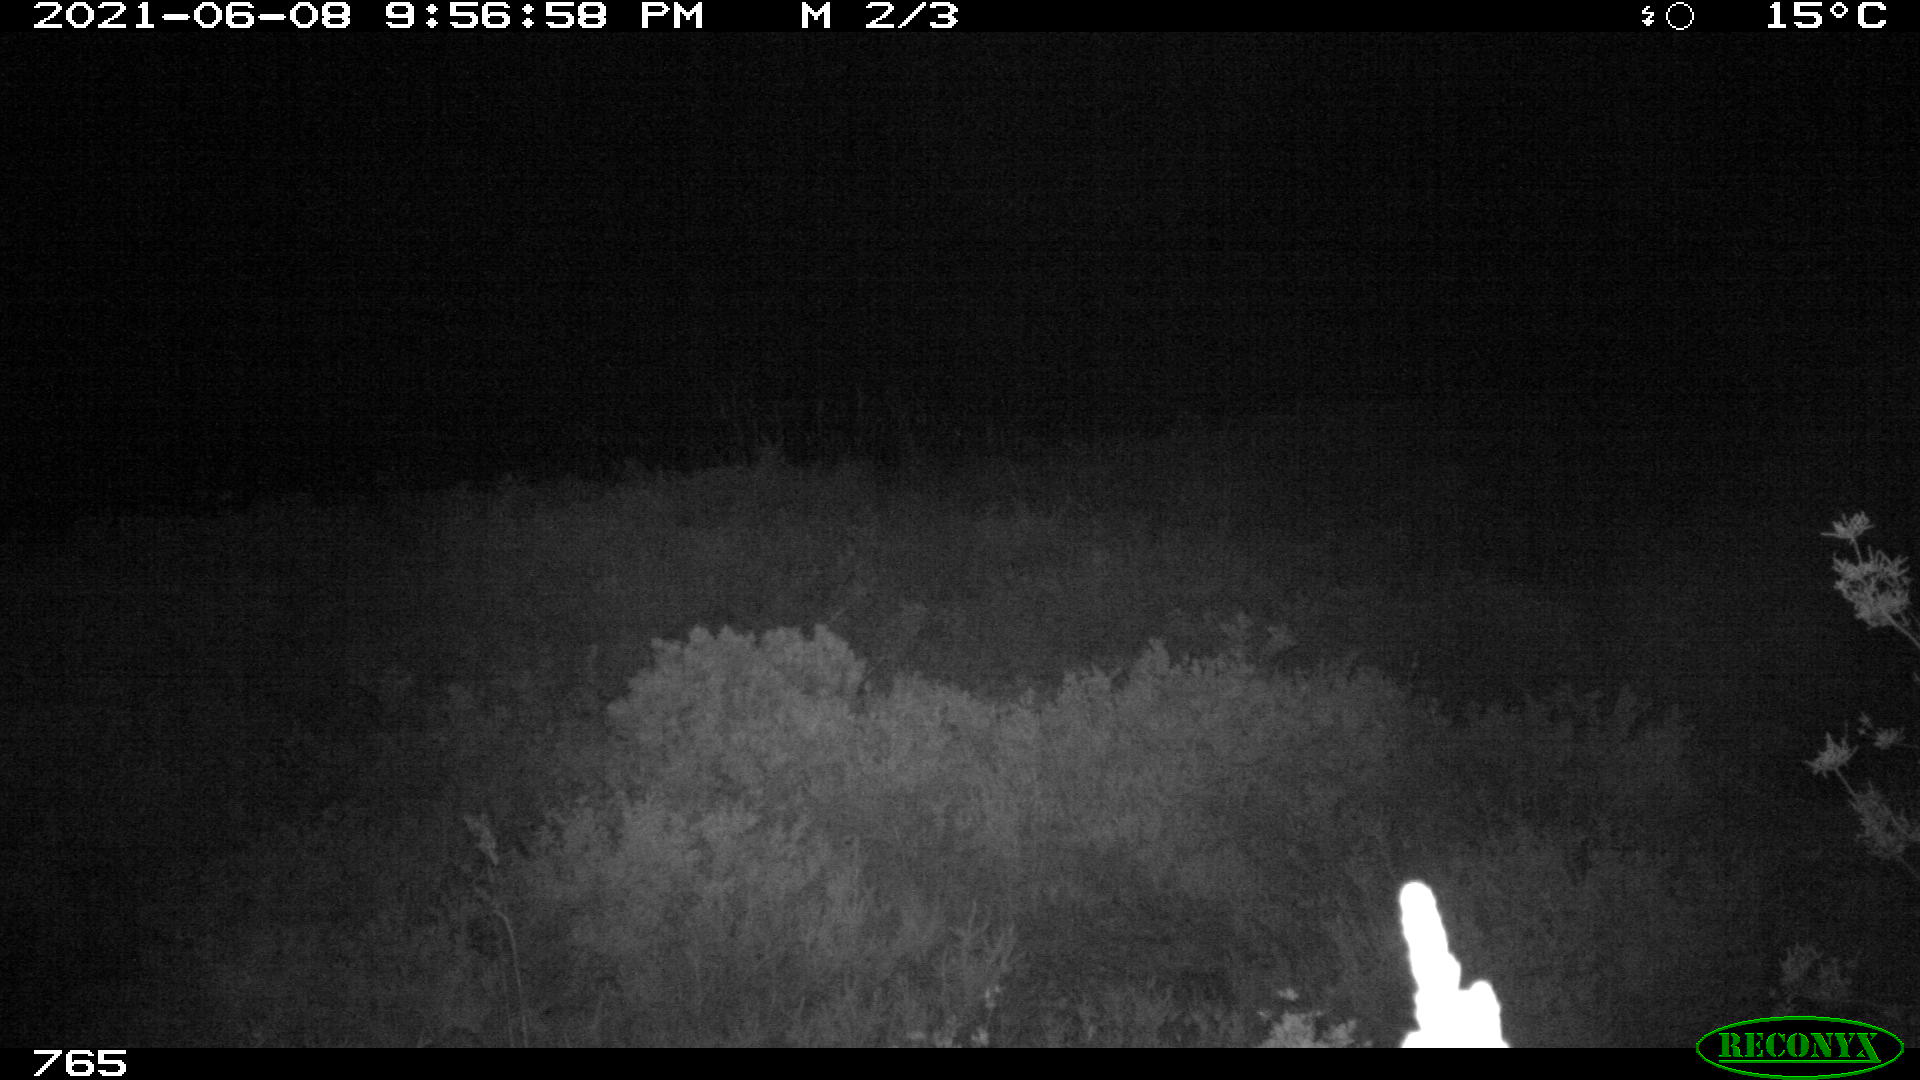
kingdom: Animalia
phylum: Chordata
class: Mammalia
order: Artiodactyla
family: Suidae
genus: Sus
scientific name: Sus scrofa
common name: Wild boar
